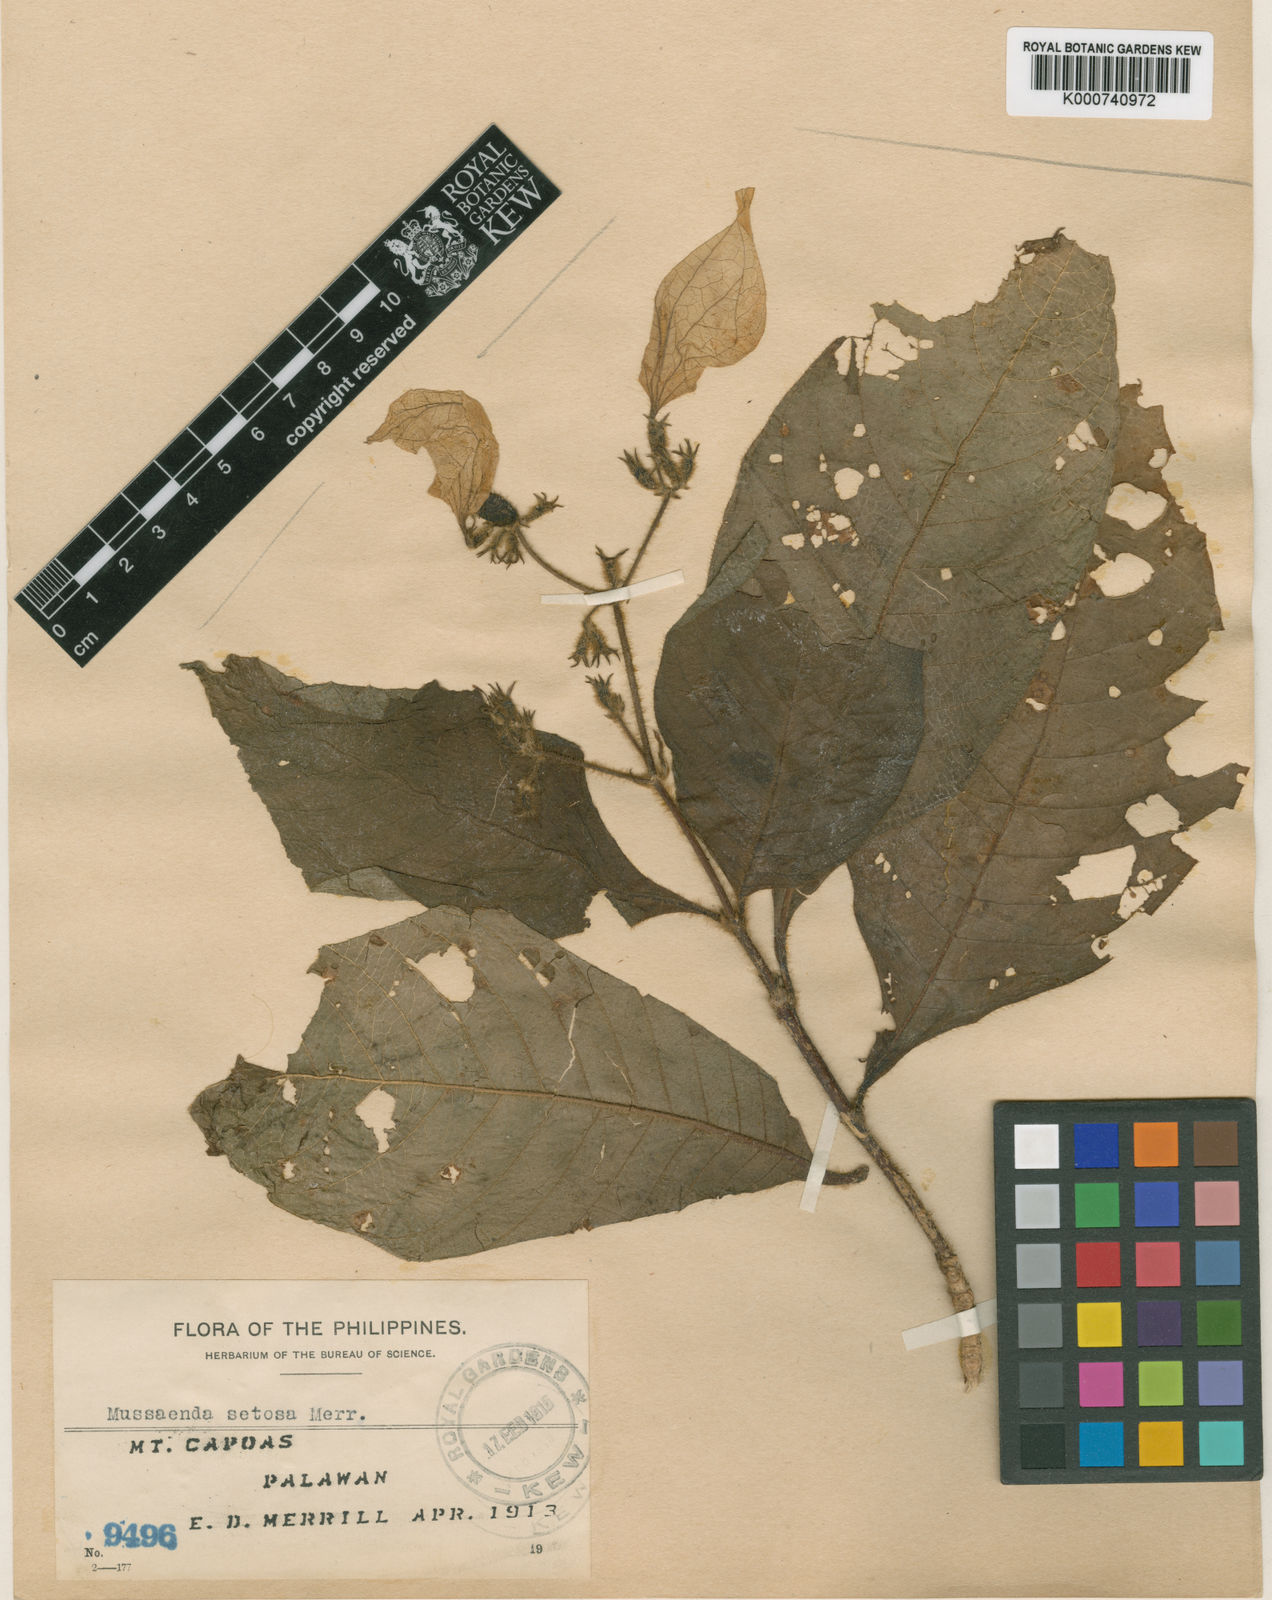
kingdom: Plantae
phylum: Tracheophyta
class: Magnoliopsida
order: Gentianales
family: Rubiaceae
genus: Mussaenda
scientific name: Mussaenda setosa
